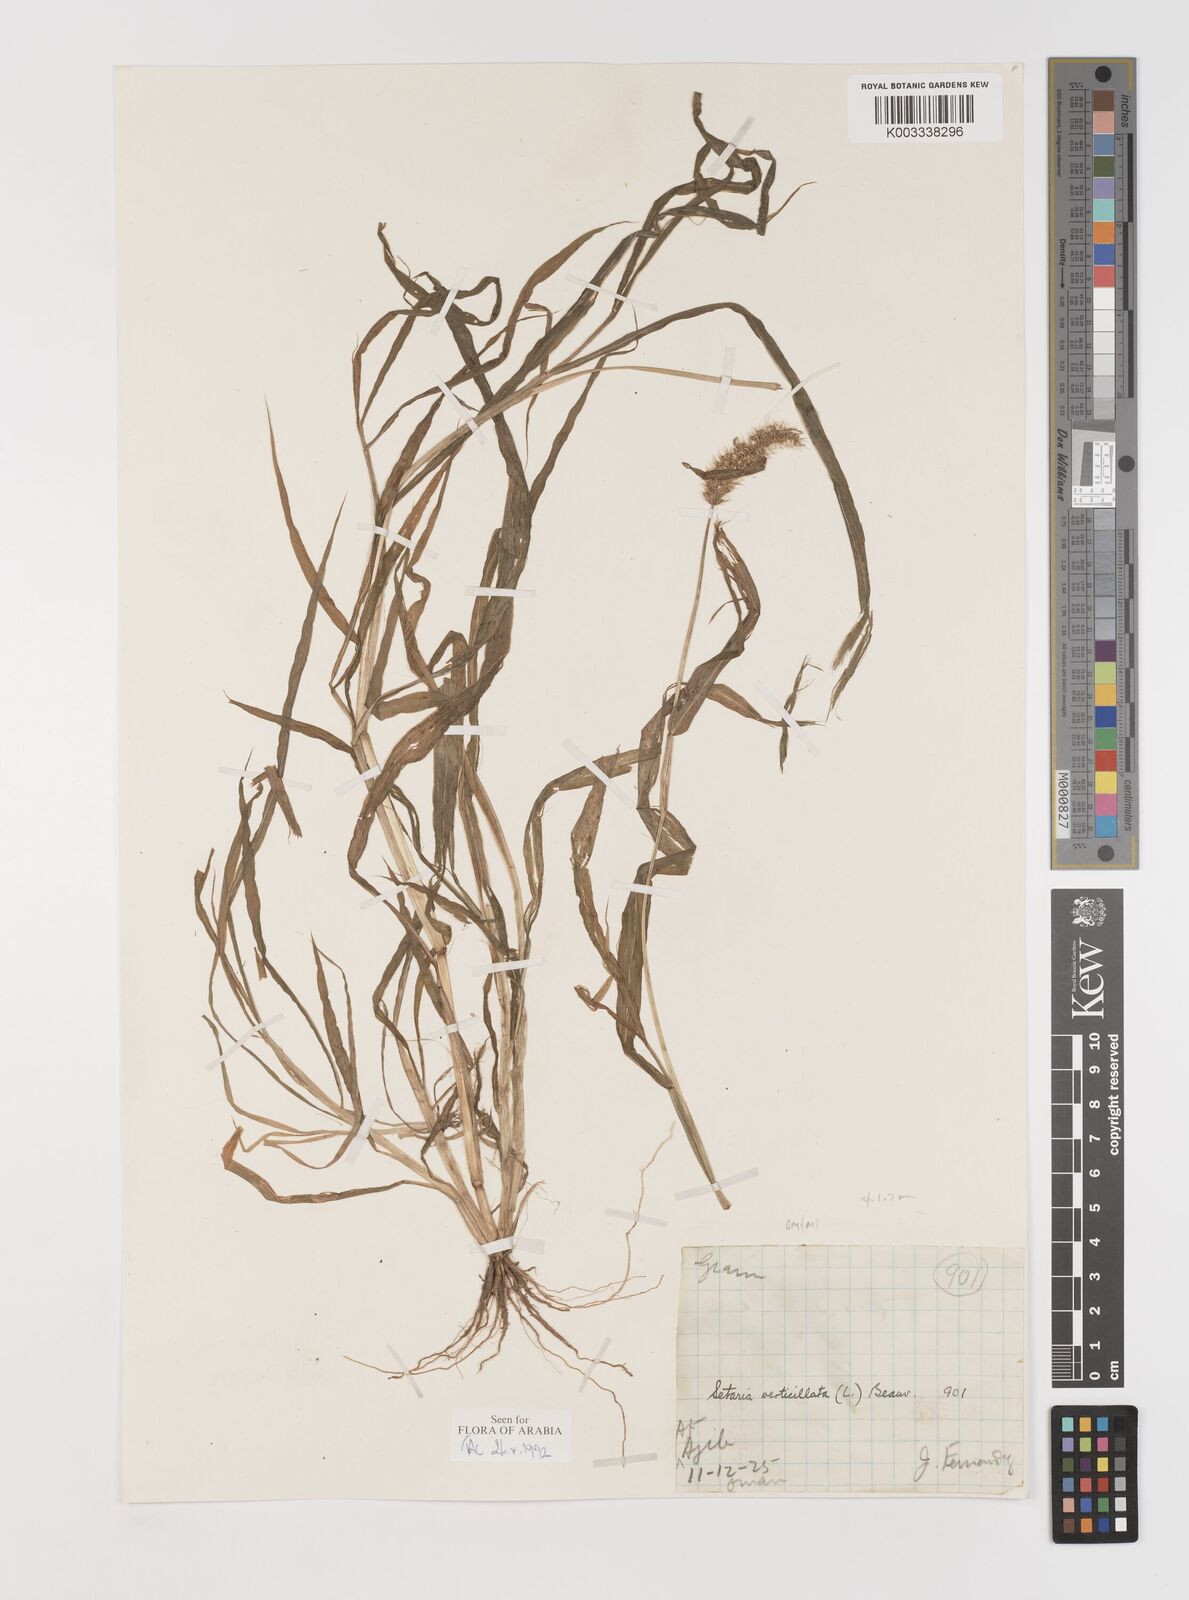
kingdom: Plantae
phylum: Tracheophyta
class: Liliopsida
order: Poales
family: Poaceae
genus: Setaria
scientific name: Setaria verticillata
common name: Hooked bristlegrass
